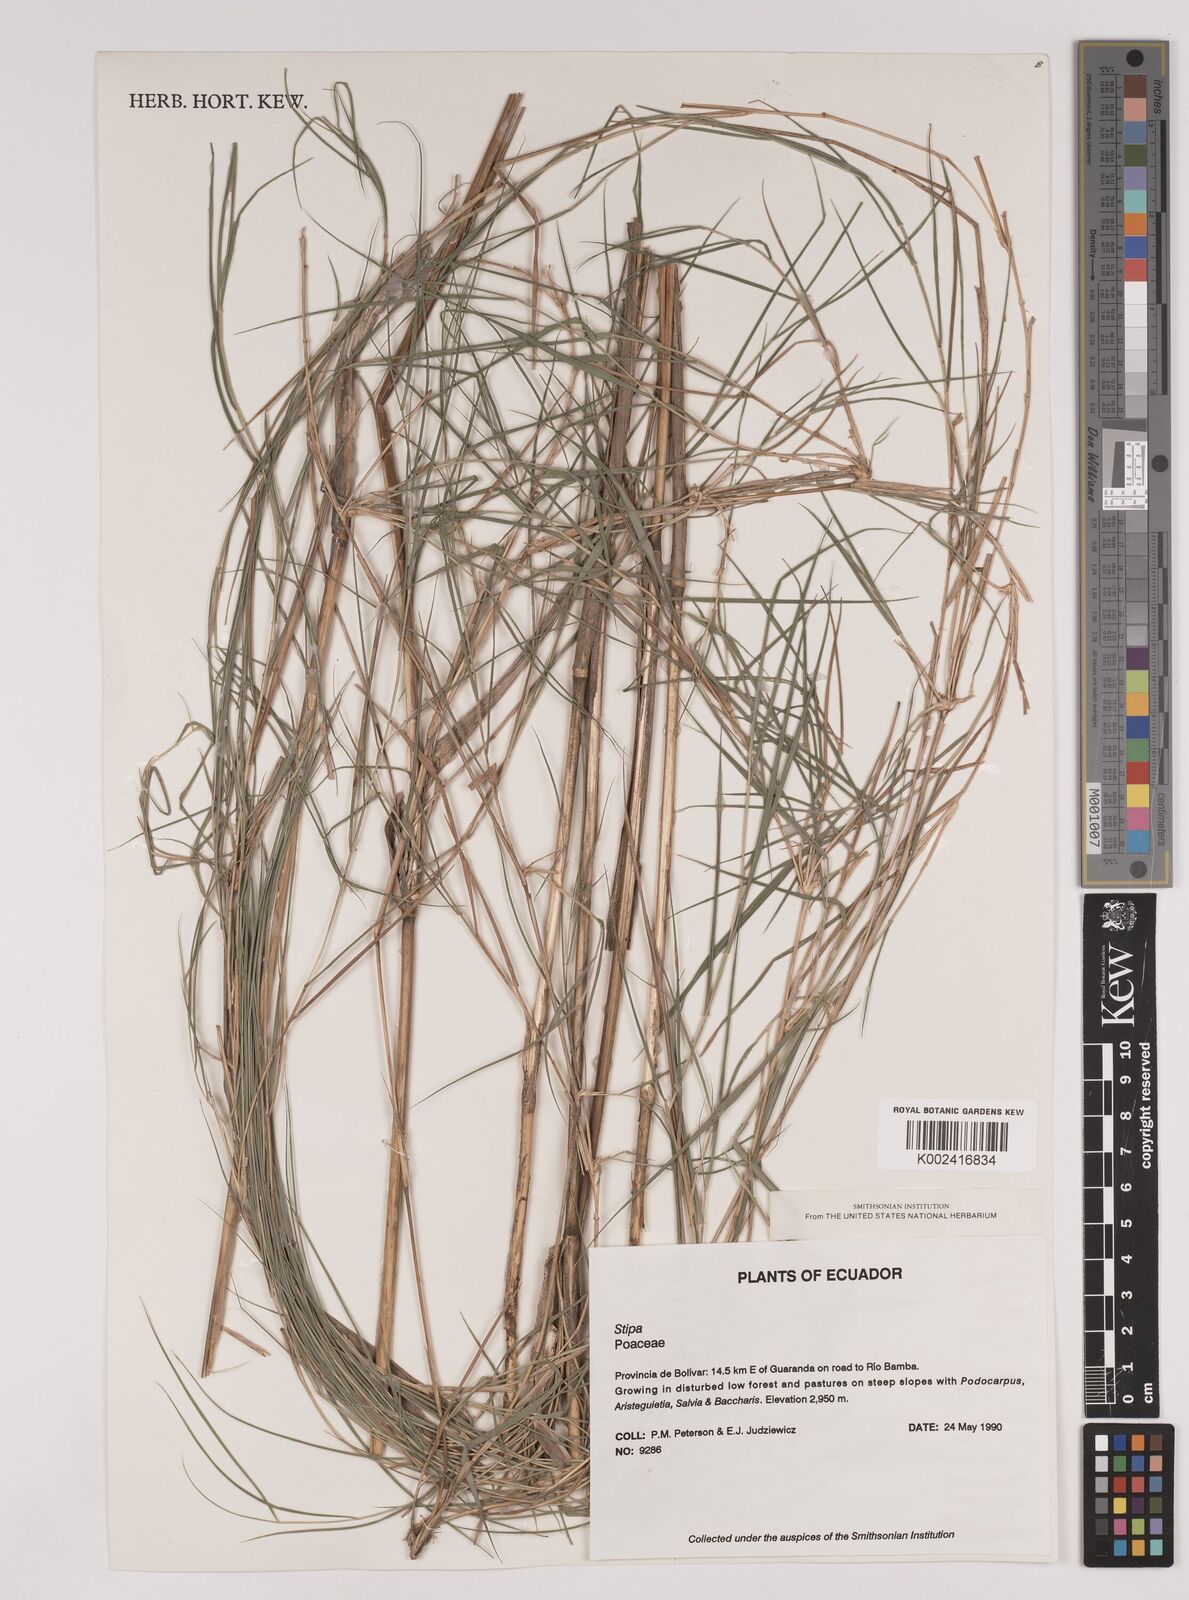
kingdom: Plantae
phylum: Tracheophyta
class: Liliopsida
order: Poales
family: Poaceae
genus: Stipa
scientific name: Stipa
